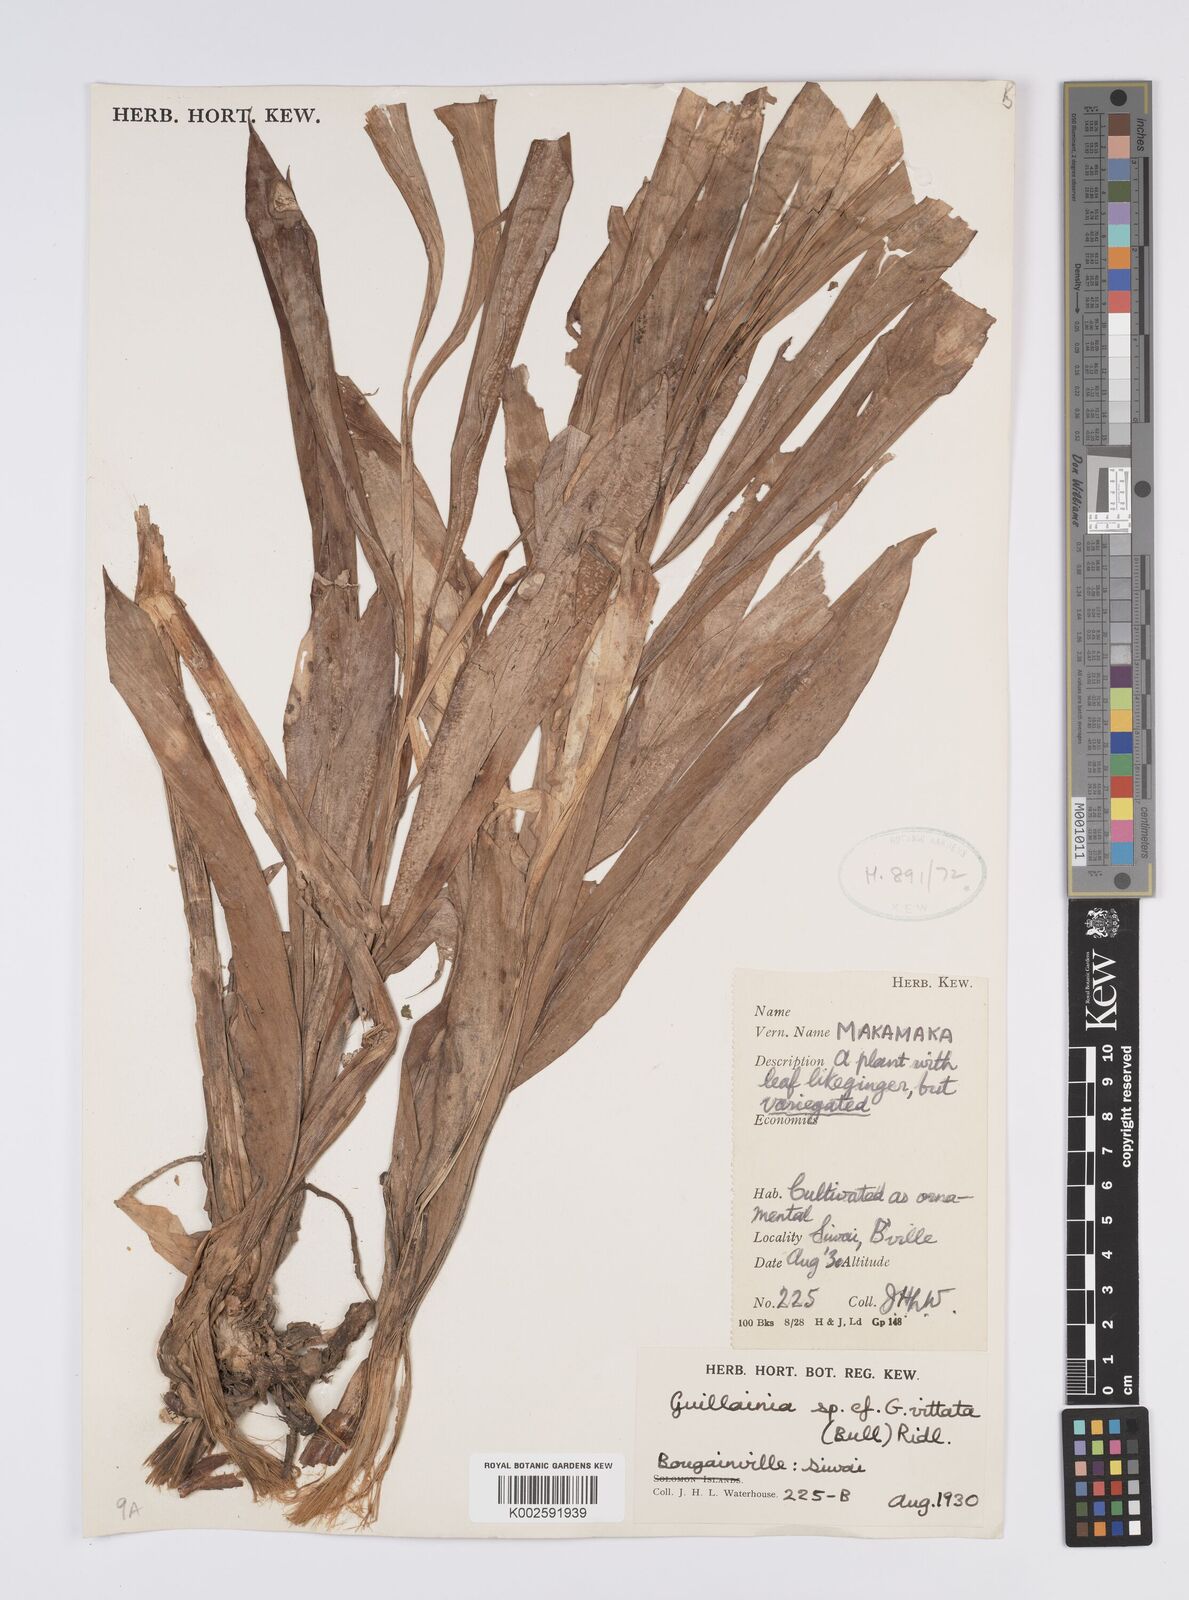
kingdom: Plantae
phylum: Tracheophyta
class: Liliopsida
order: Zingiberales
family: Zingiberaceae
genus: Alpinia
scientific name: Alpinia vittata
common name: Variegate-ginger
